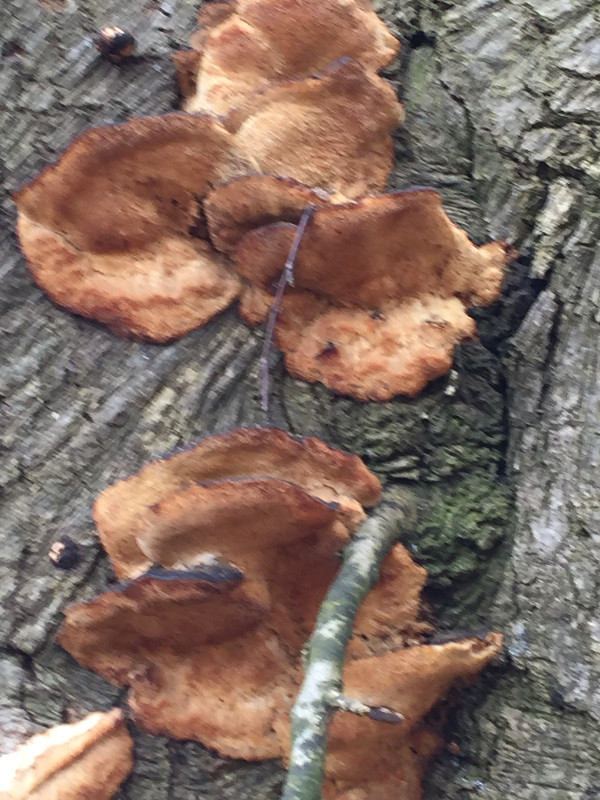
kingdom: Fungi
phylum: Basidiomycota
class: Agaricomycetes
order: Polyporales
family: Ischnodermataceae
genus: Ischnoderma
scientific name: Ischnoderma resinosum
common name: løv-tjæreporesvamp
